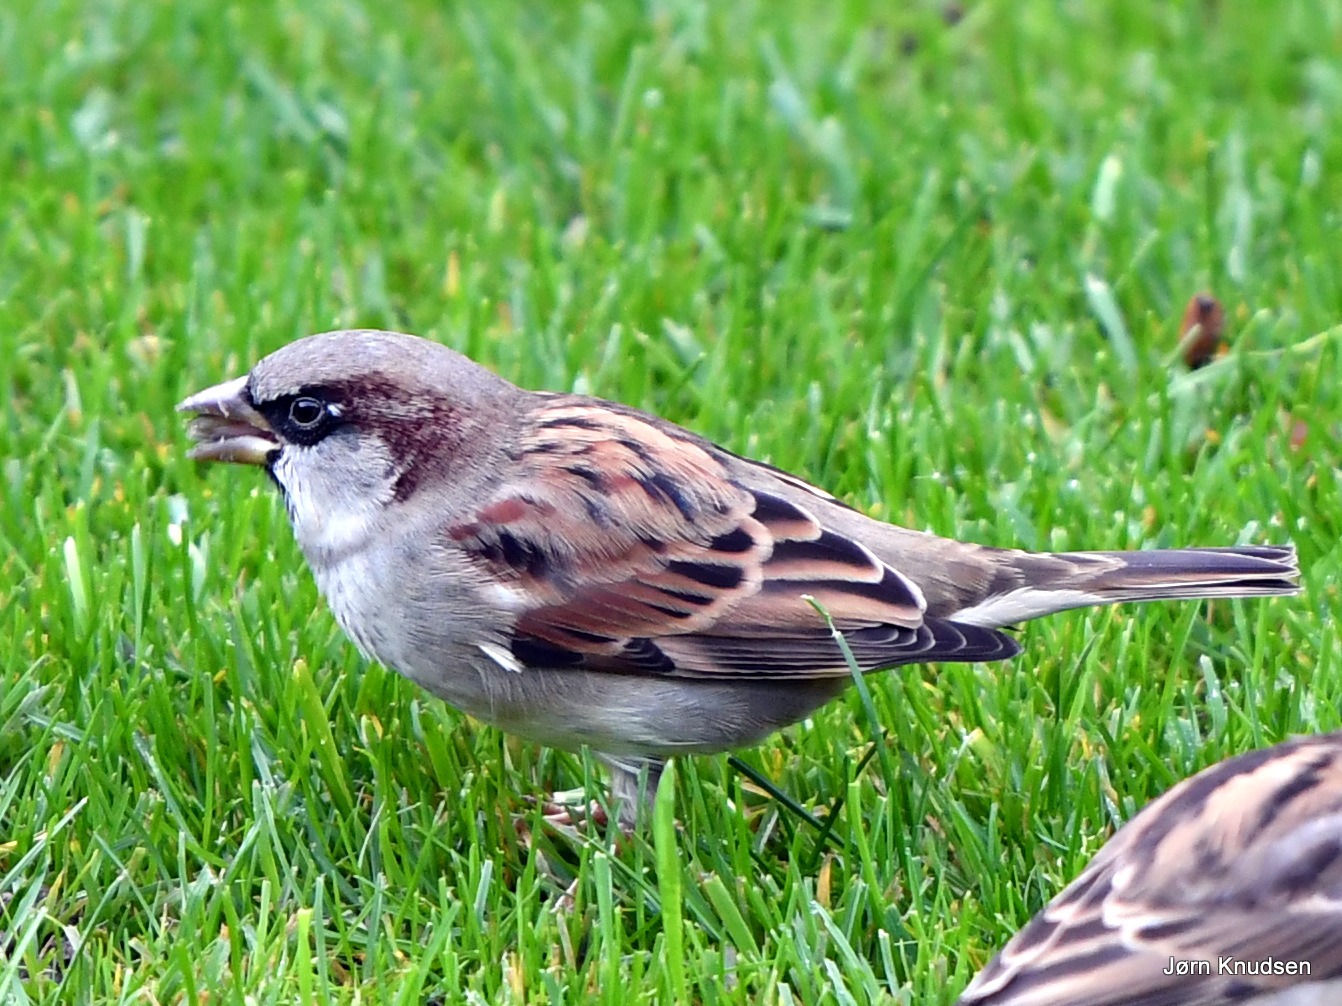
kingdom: Animalia
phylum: Chordata
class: Aves
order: Passeriformes
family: Passeridae
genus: Passer
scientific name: Passer domesticus
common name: Gråspurv
